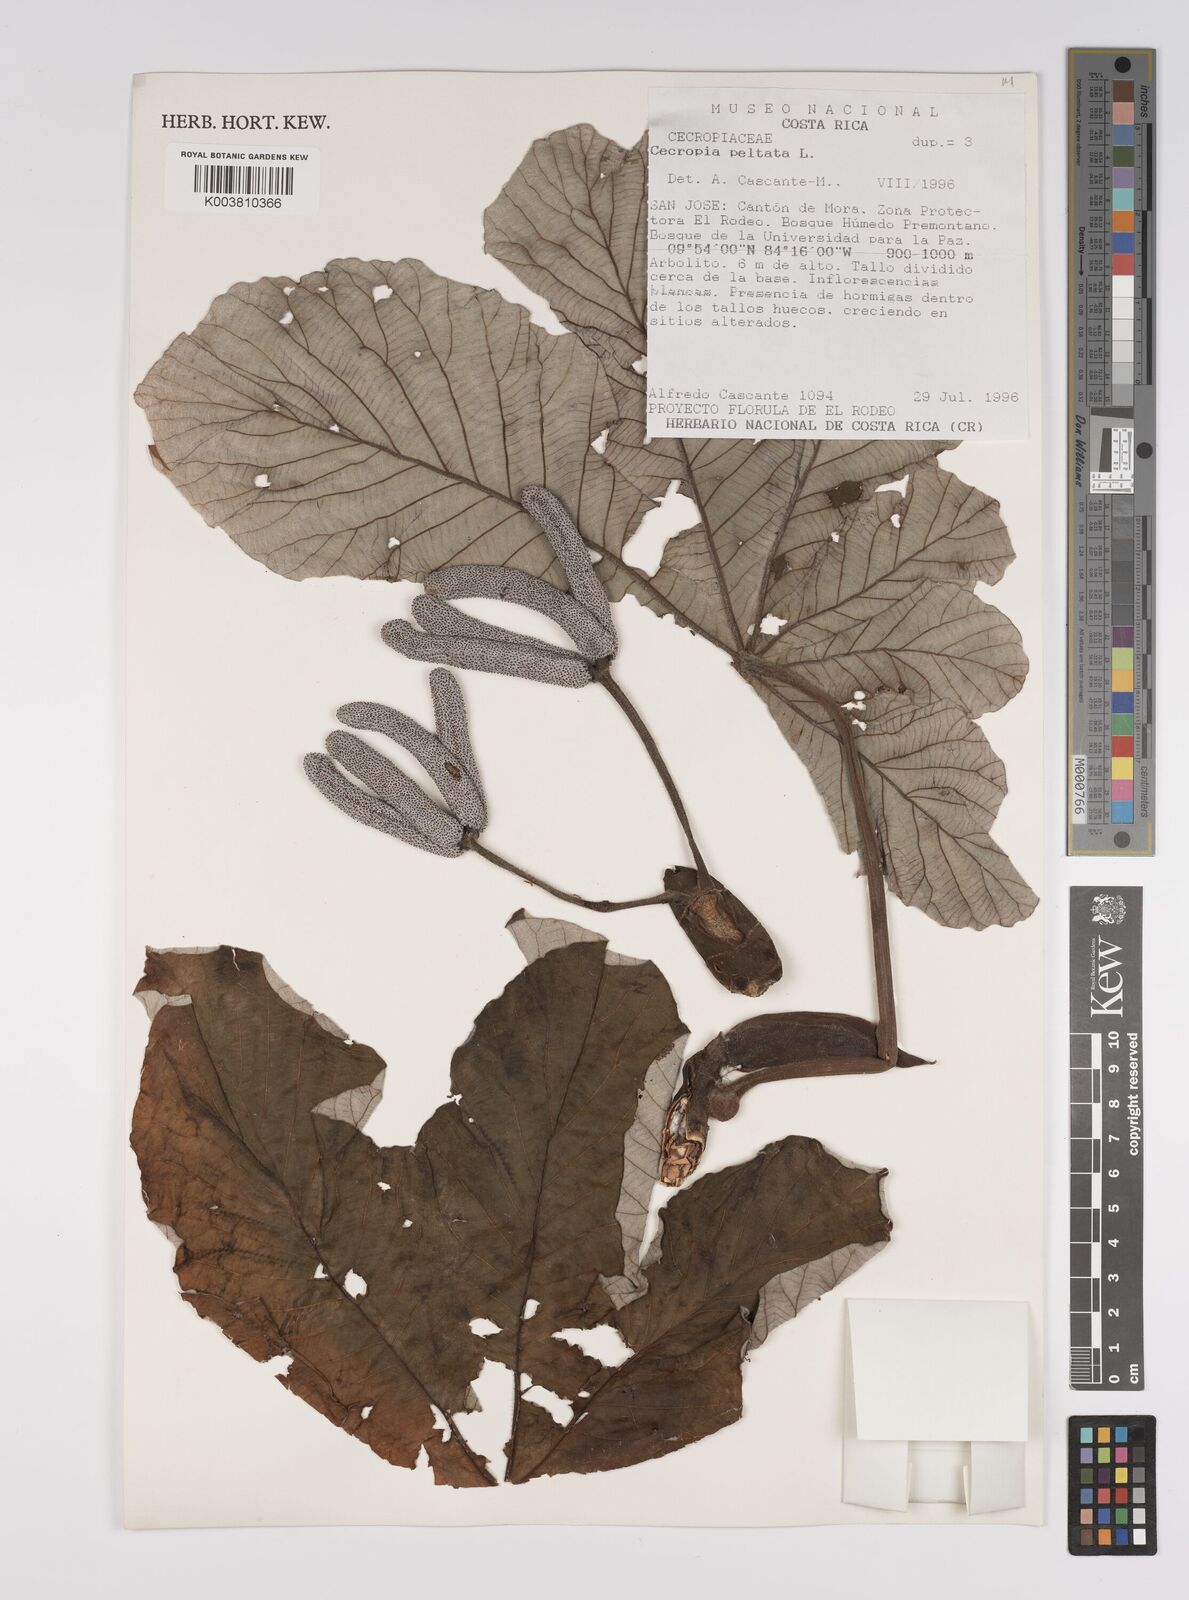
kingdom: Plantae
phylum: Tracheophyta
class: Magnoliopsida
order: Rosales
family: Urticaceae
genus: Cecropia
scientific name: Cecropia peltata
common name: Trumpet-tree
